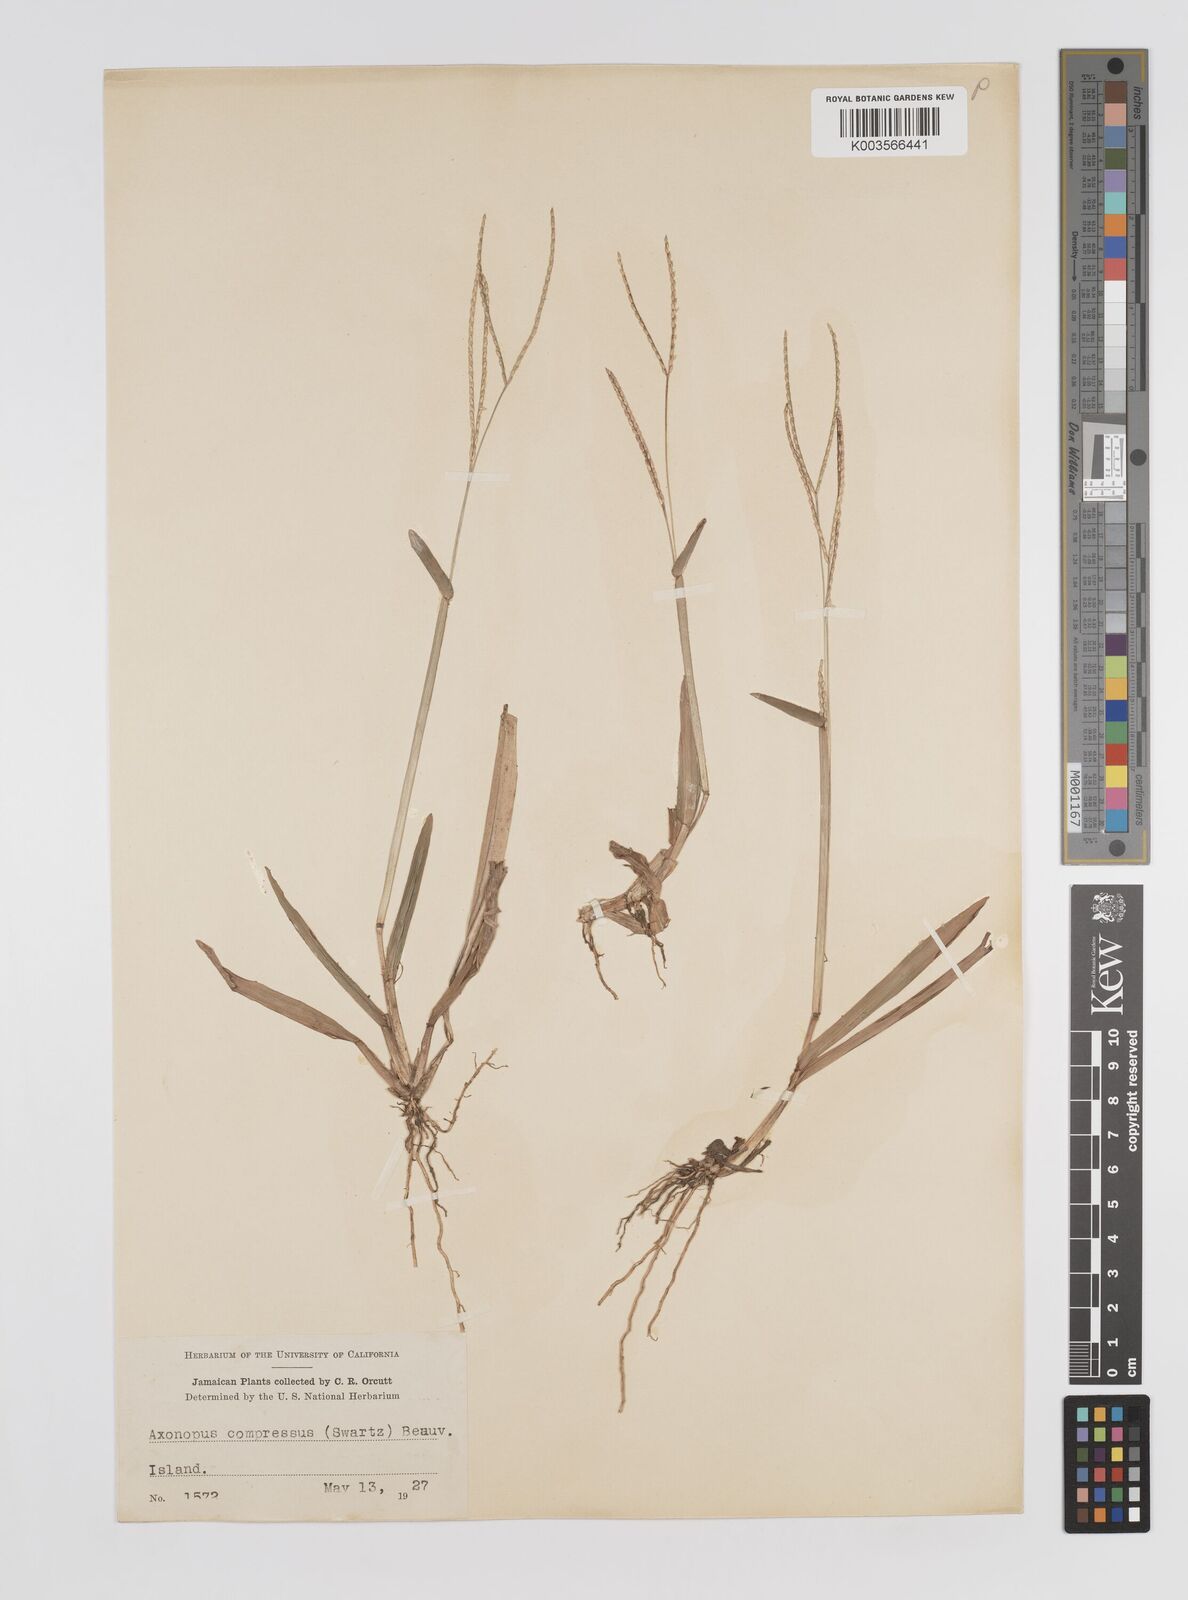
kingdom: Plantae
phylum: Tracheophyta
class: Liliopsida
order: Poales
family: Poaceae
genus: Axonopus
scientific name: Axonopus compressus
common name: American carpet grass
